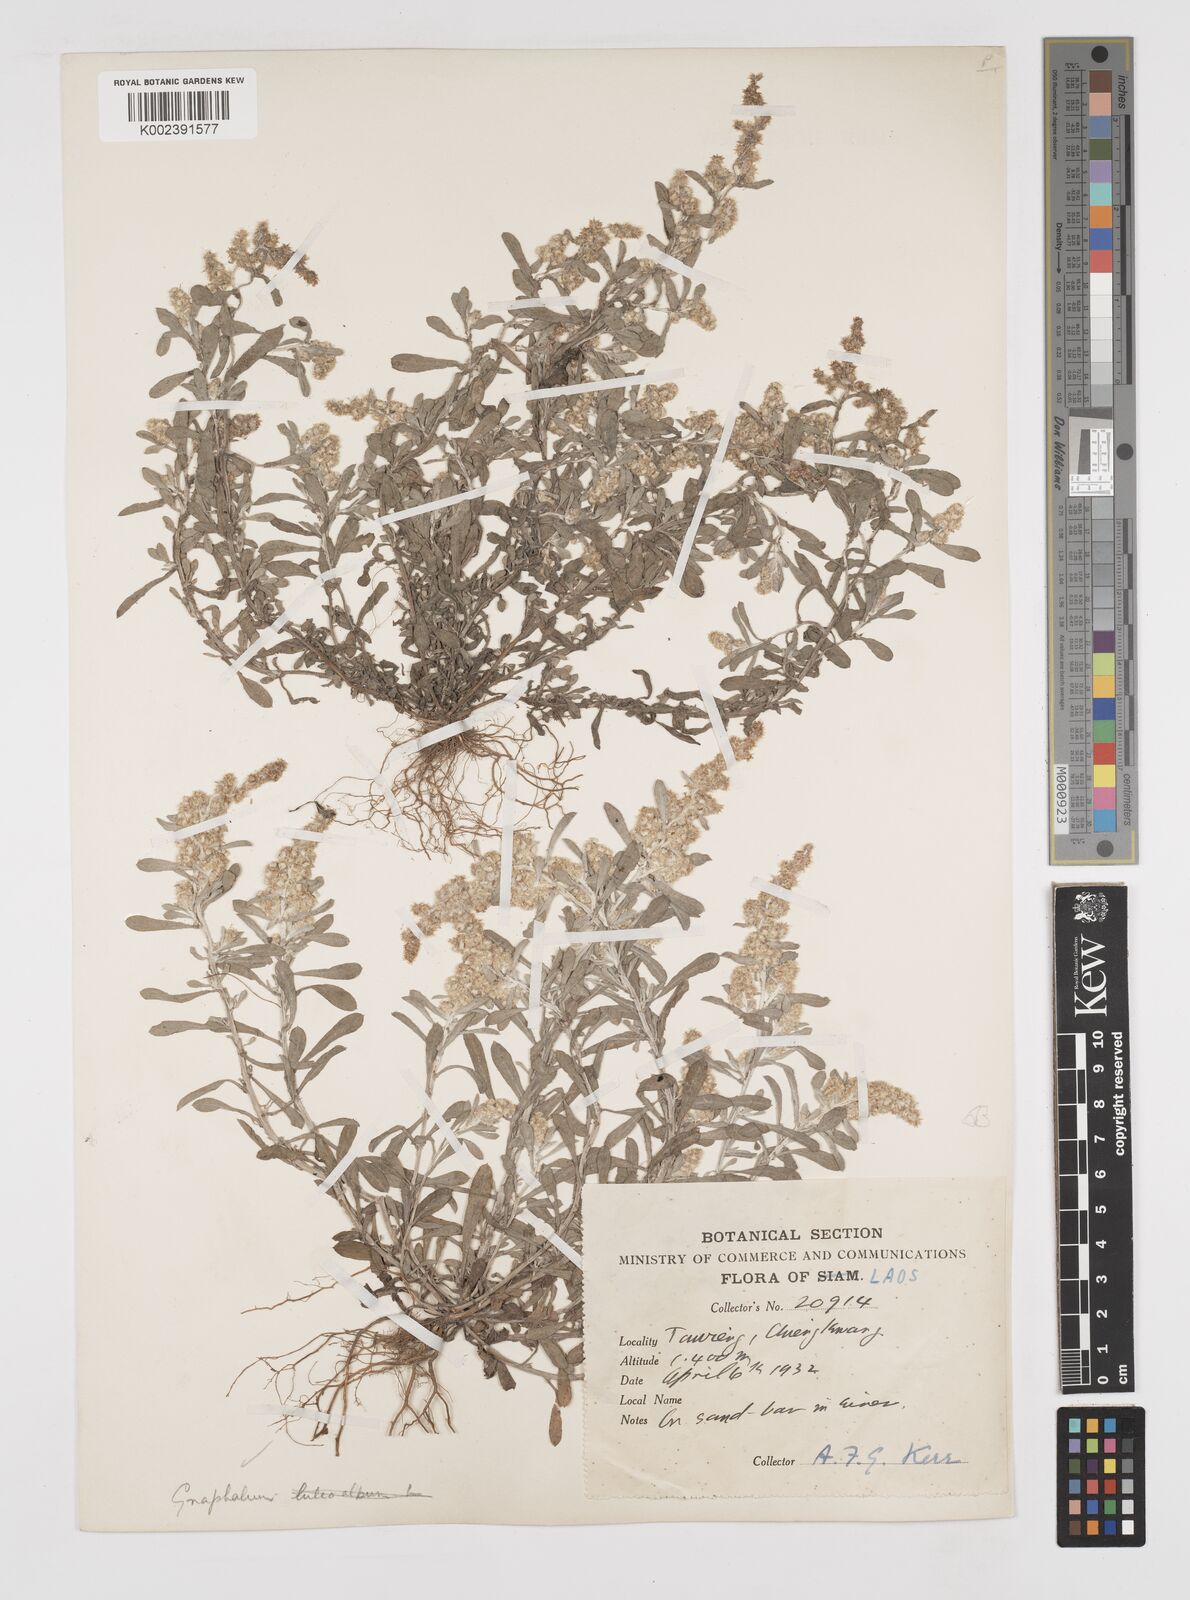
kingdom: Plantae
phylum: Tracheophyta
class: Magnoliopsida
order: Asterales
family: Asteraceae
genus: Gnaphalium
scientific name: Gnaphalium
